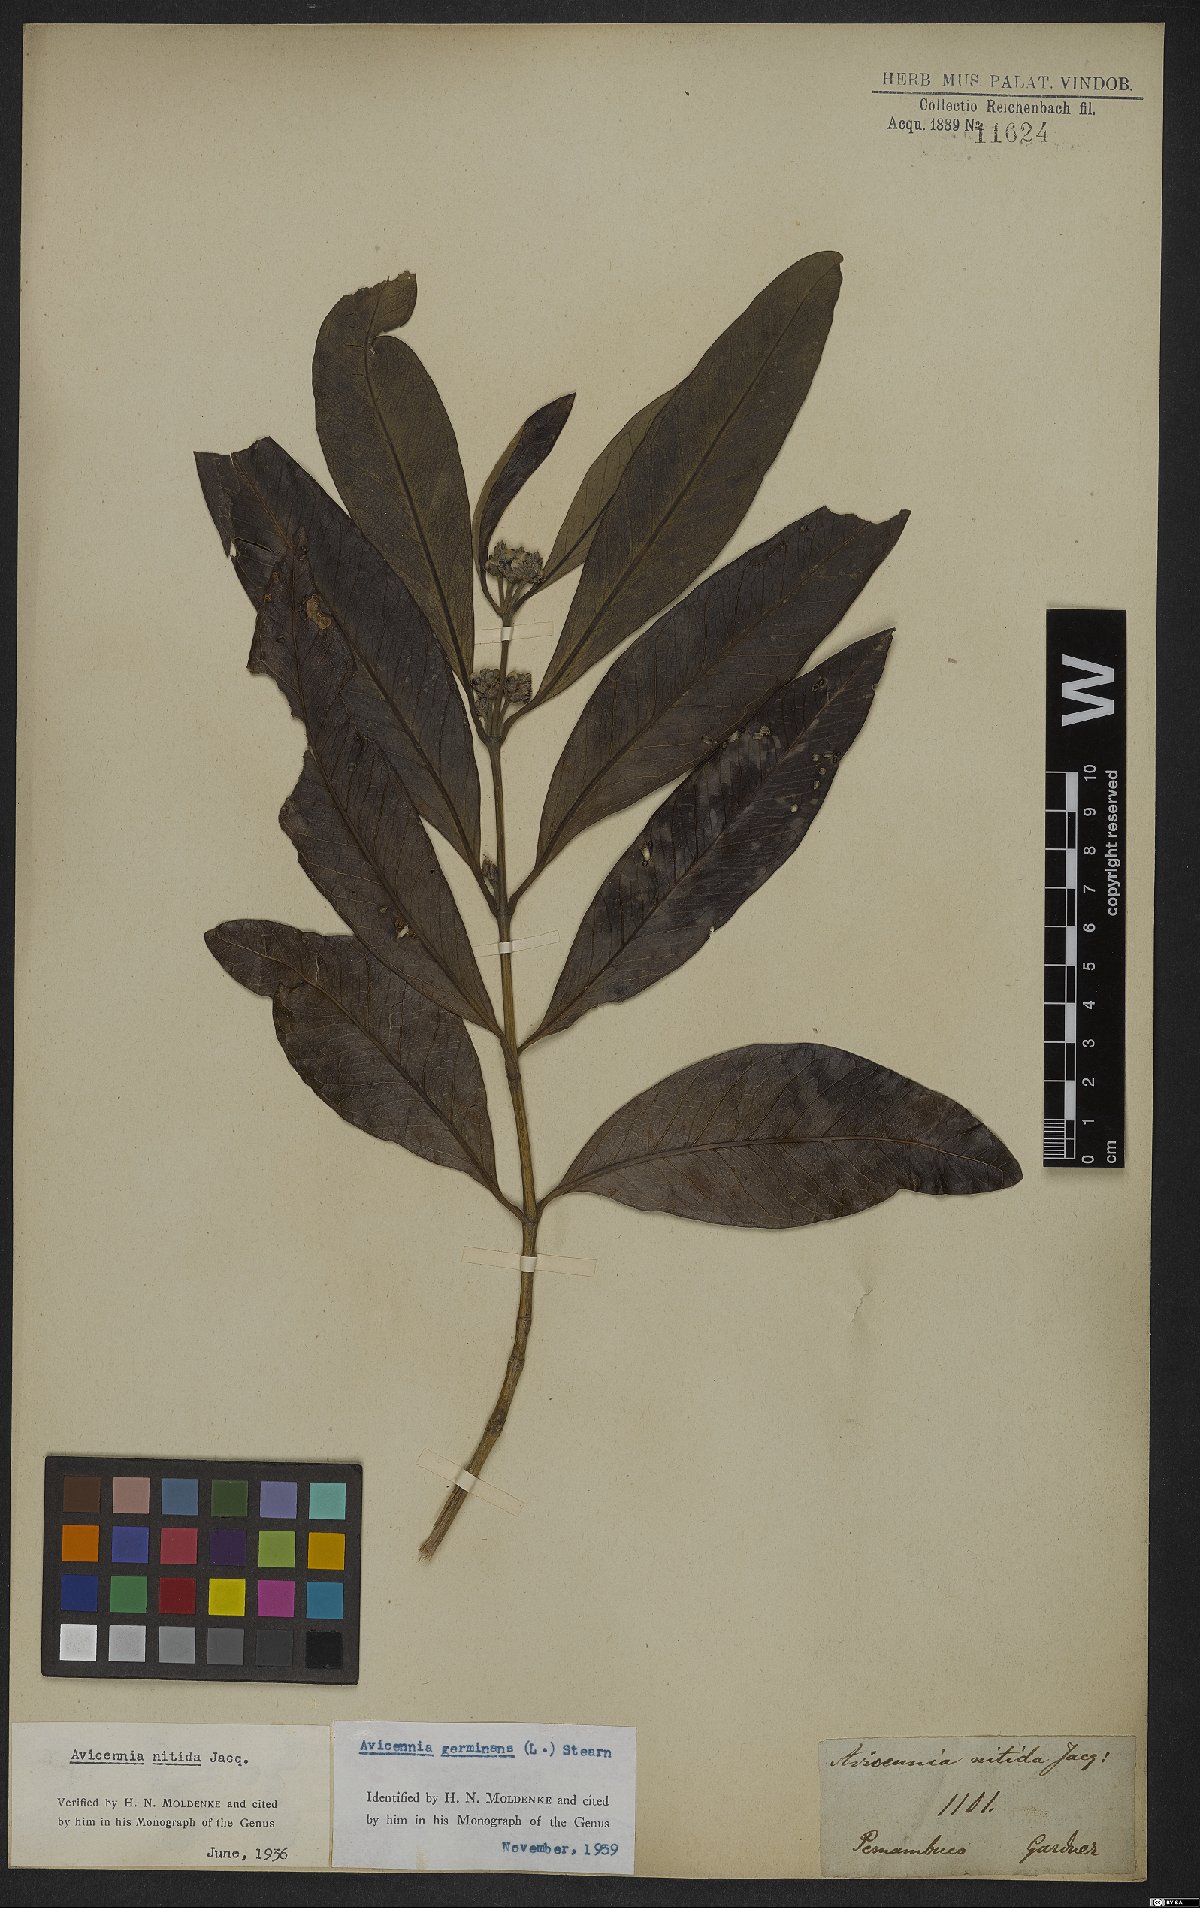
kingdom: Plantae
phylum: Tracheophyta
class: Magnoliopsida
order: Lamiales
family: Acanthaceae
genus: Avicennia
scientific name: Avicennia germinans
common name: Black mangrove
